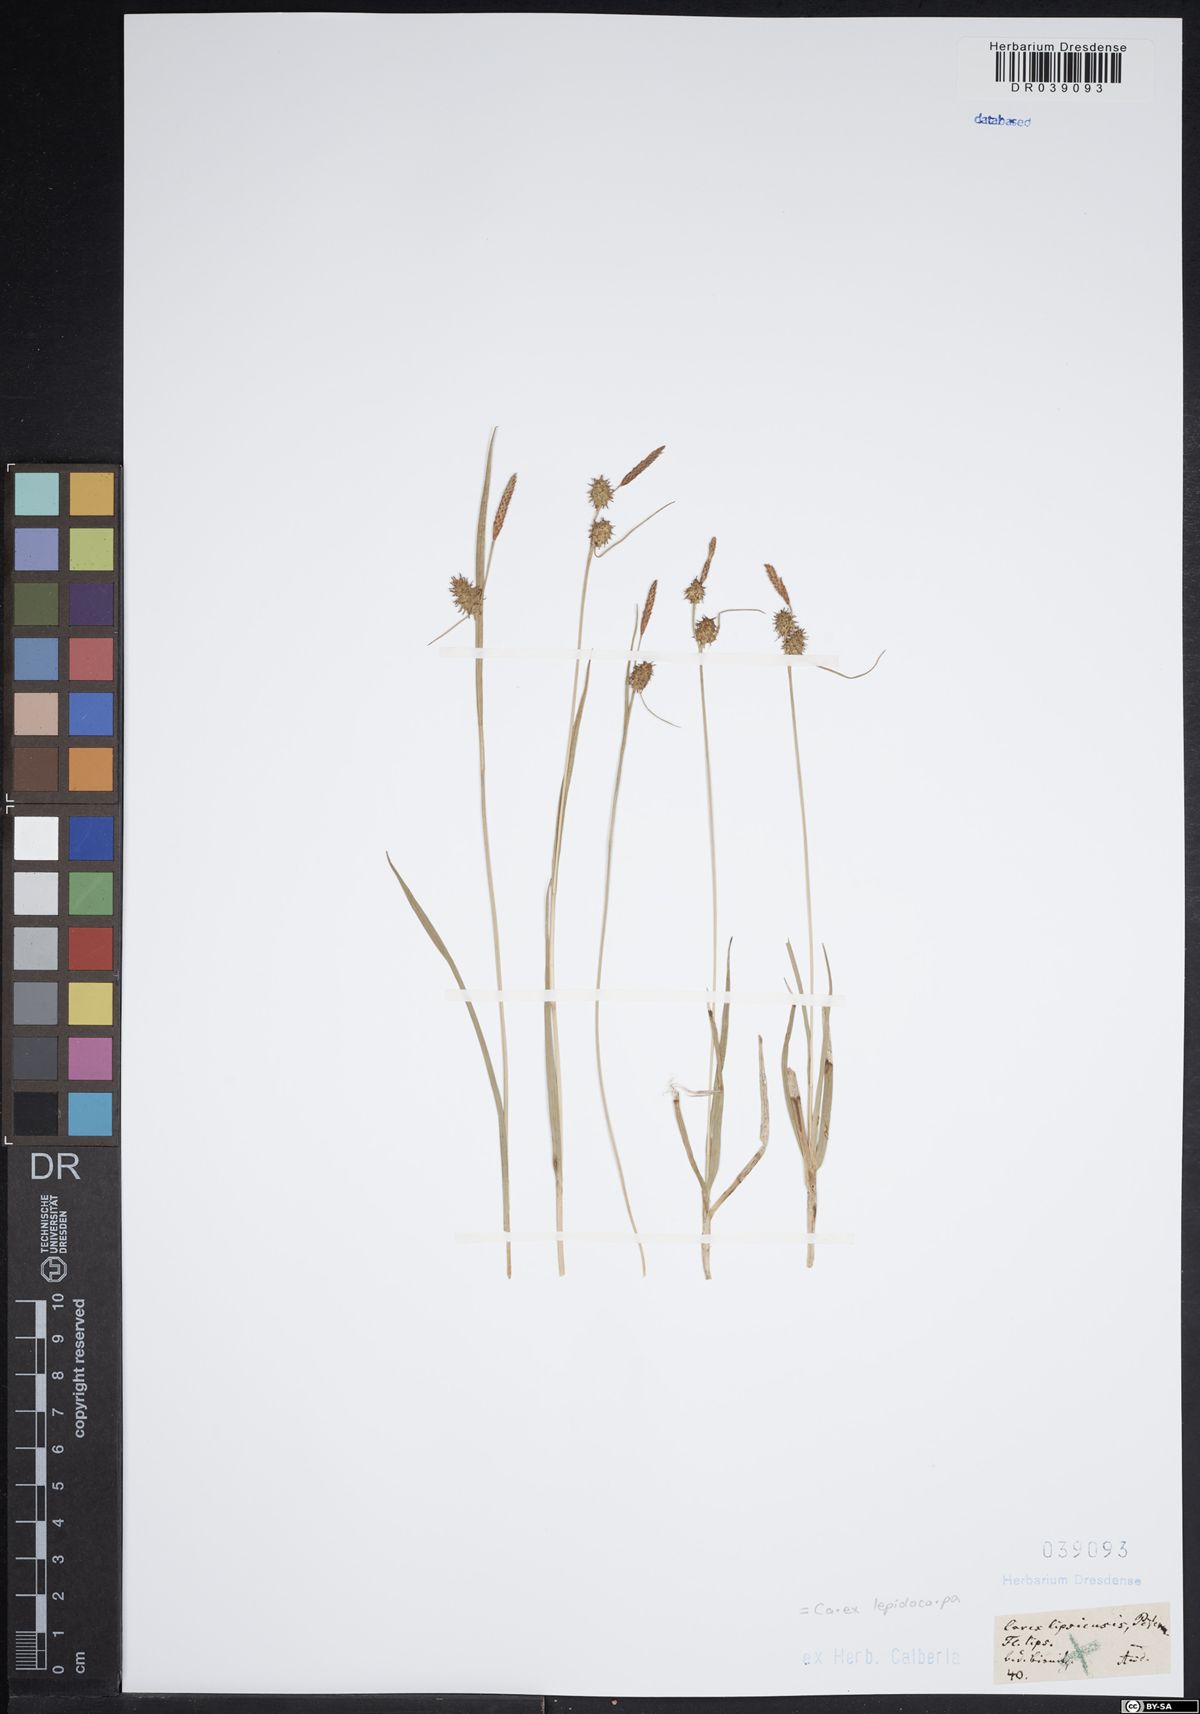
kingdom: Plantae
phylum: Tracheophyta
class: Liliopsida
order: Poales
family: Cyperaceae
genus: Carex
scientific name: Carex lepidocarpa
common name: Long-stalked yellow-sedge
